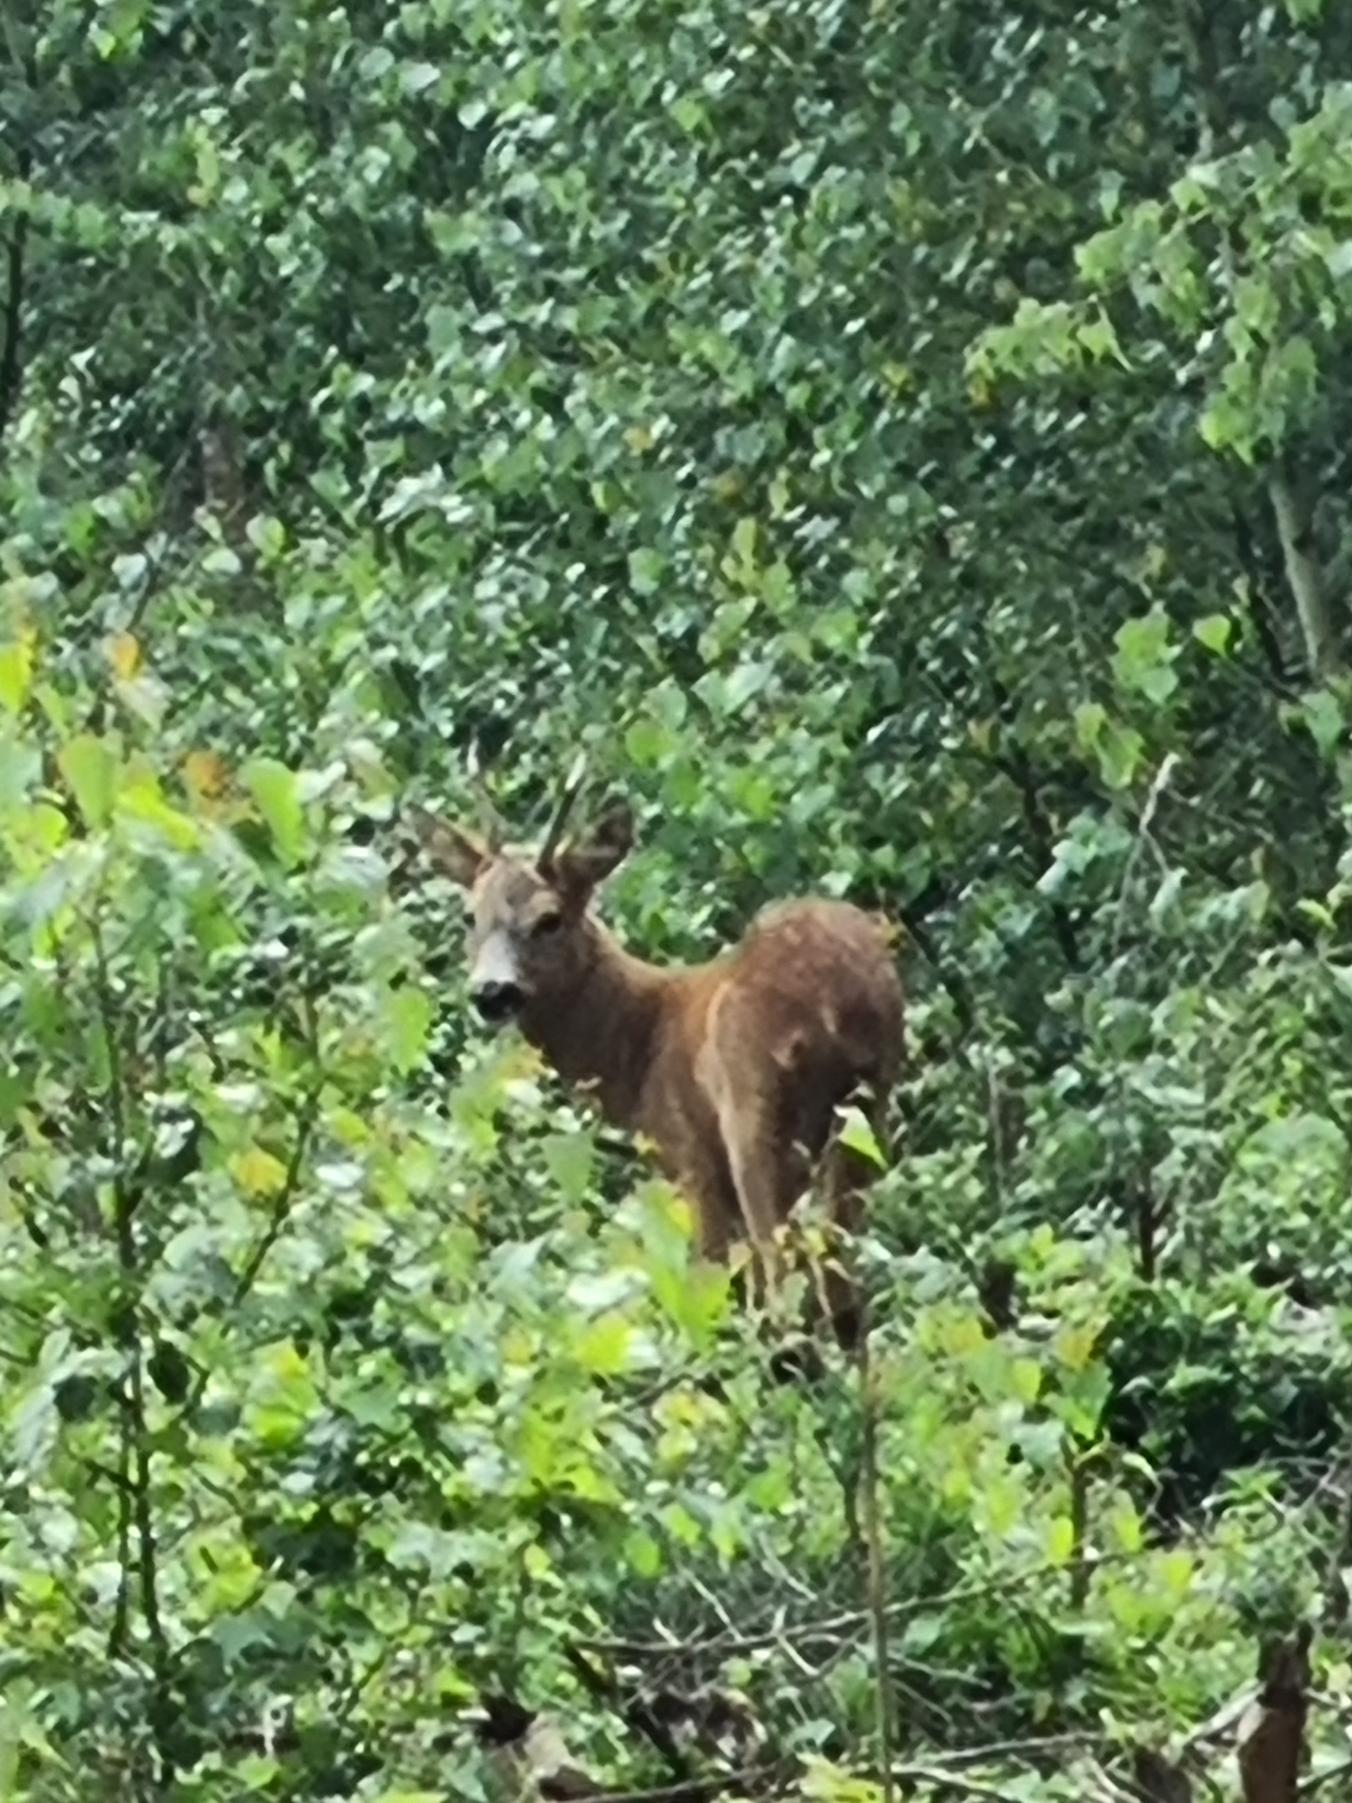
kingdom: Animalia
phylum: Chordata
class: Mammalia
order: Artiodactyla
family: Cervidae
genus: Capreolus
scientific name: Capreolus capreolus
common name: Rådyr
